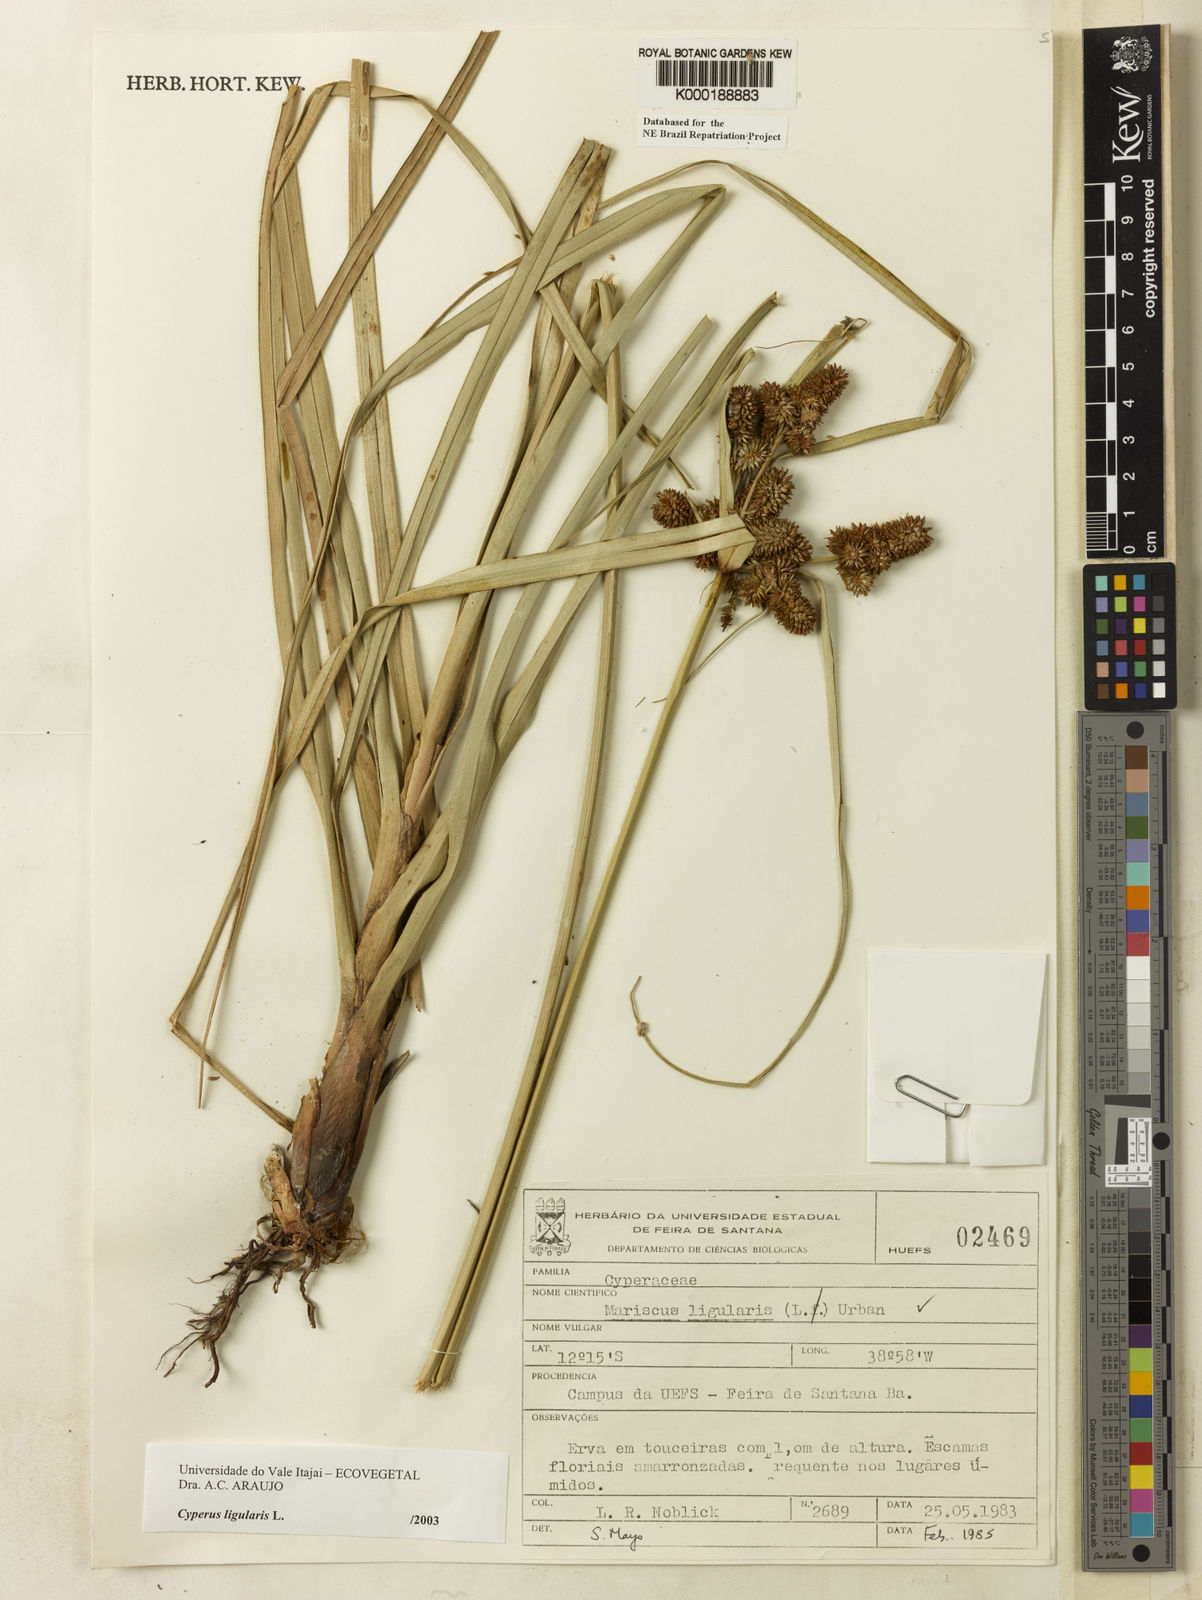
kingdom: Plantae
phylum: Tracheophyta
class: Liliopsida
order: Poales
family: Cyperaceae
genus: Cyperus
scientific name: Cyperus ligularis
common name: Swamp flat sedge
